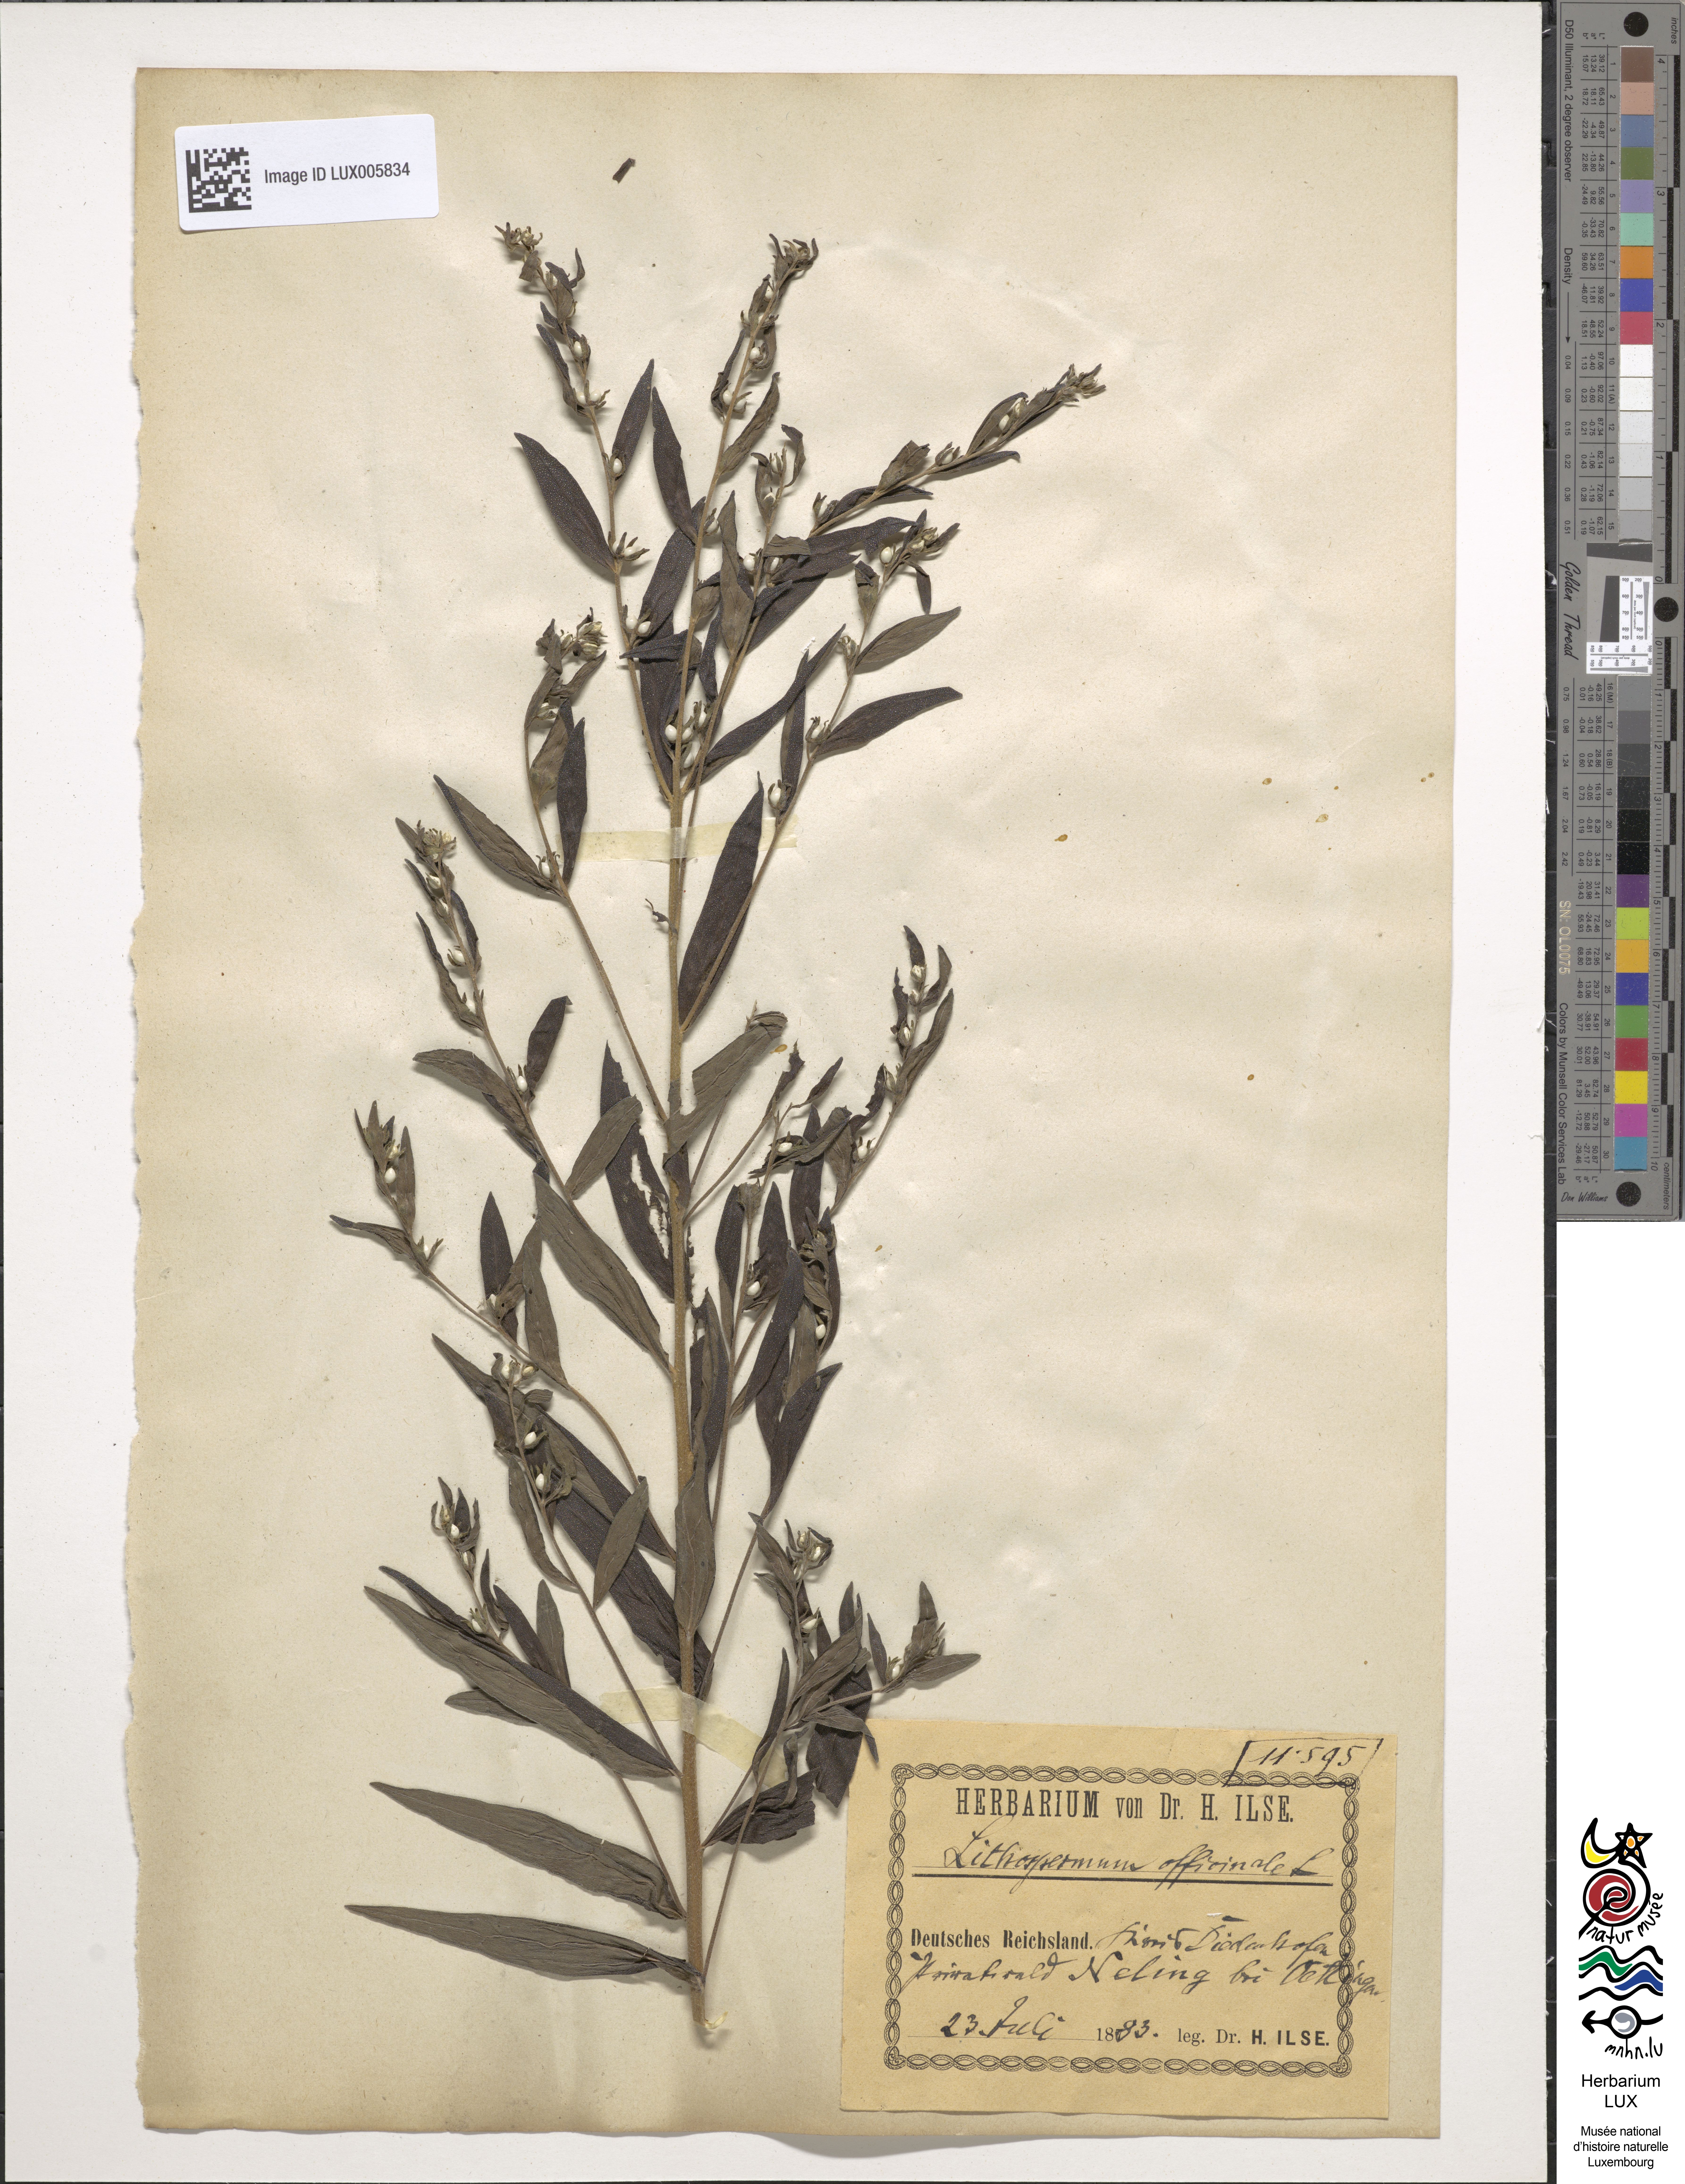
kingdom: Plantae
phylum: Tracheophyta
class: Magnoliopsida
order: Boraginales
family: Boraginaceae
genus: Lithospermum
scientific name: Lithospermum officinale
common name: Common gromwell
